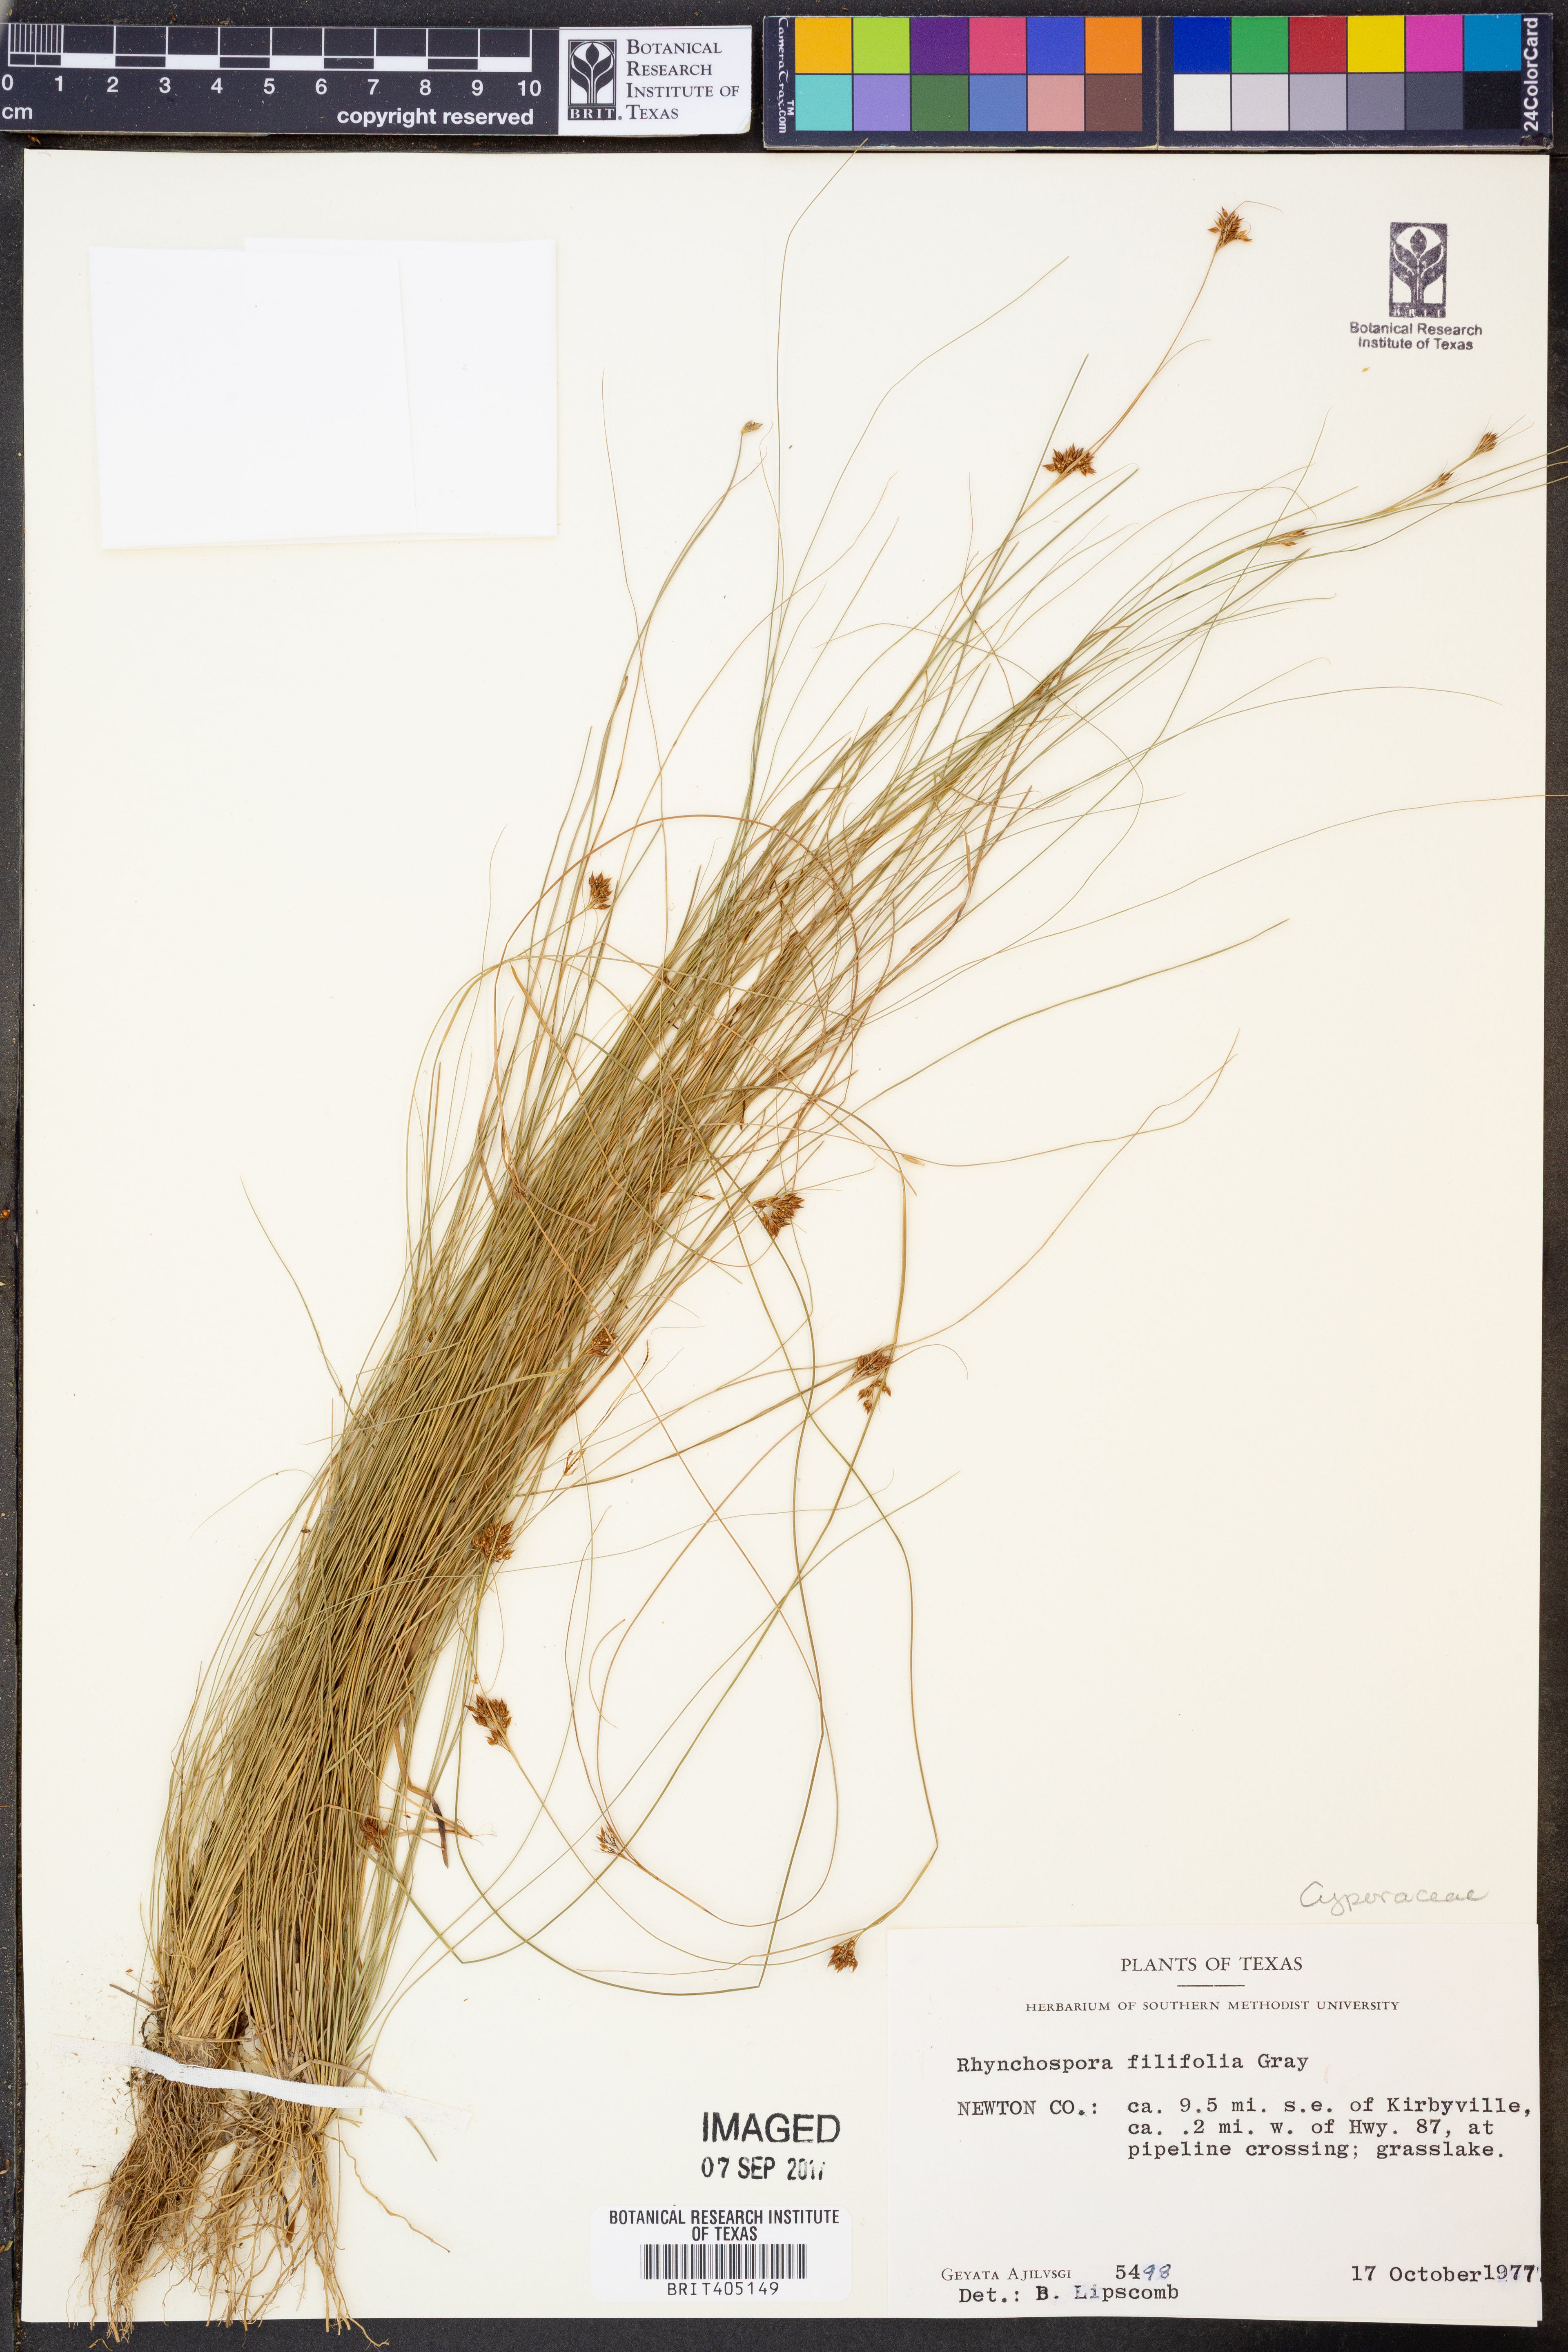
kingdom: Plantae
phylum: Tracheophyta
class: Liliopsida
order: Poales
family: Cyperaceae
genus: Rhynchospora
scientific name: Rhynchospora filifolia
